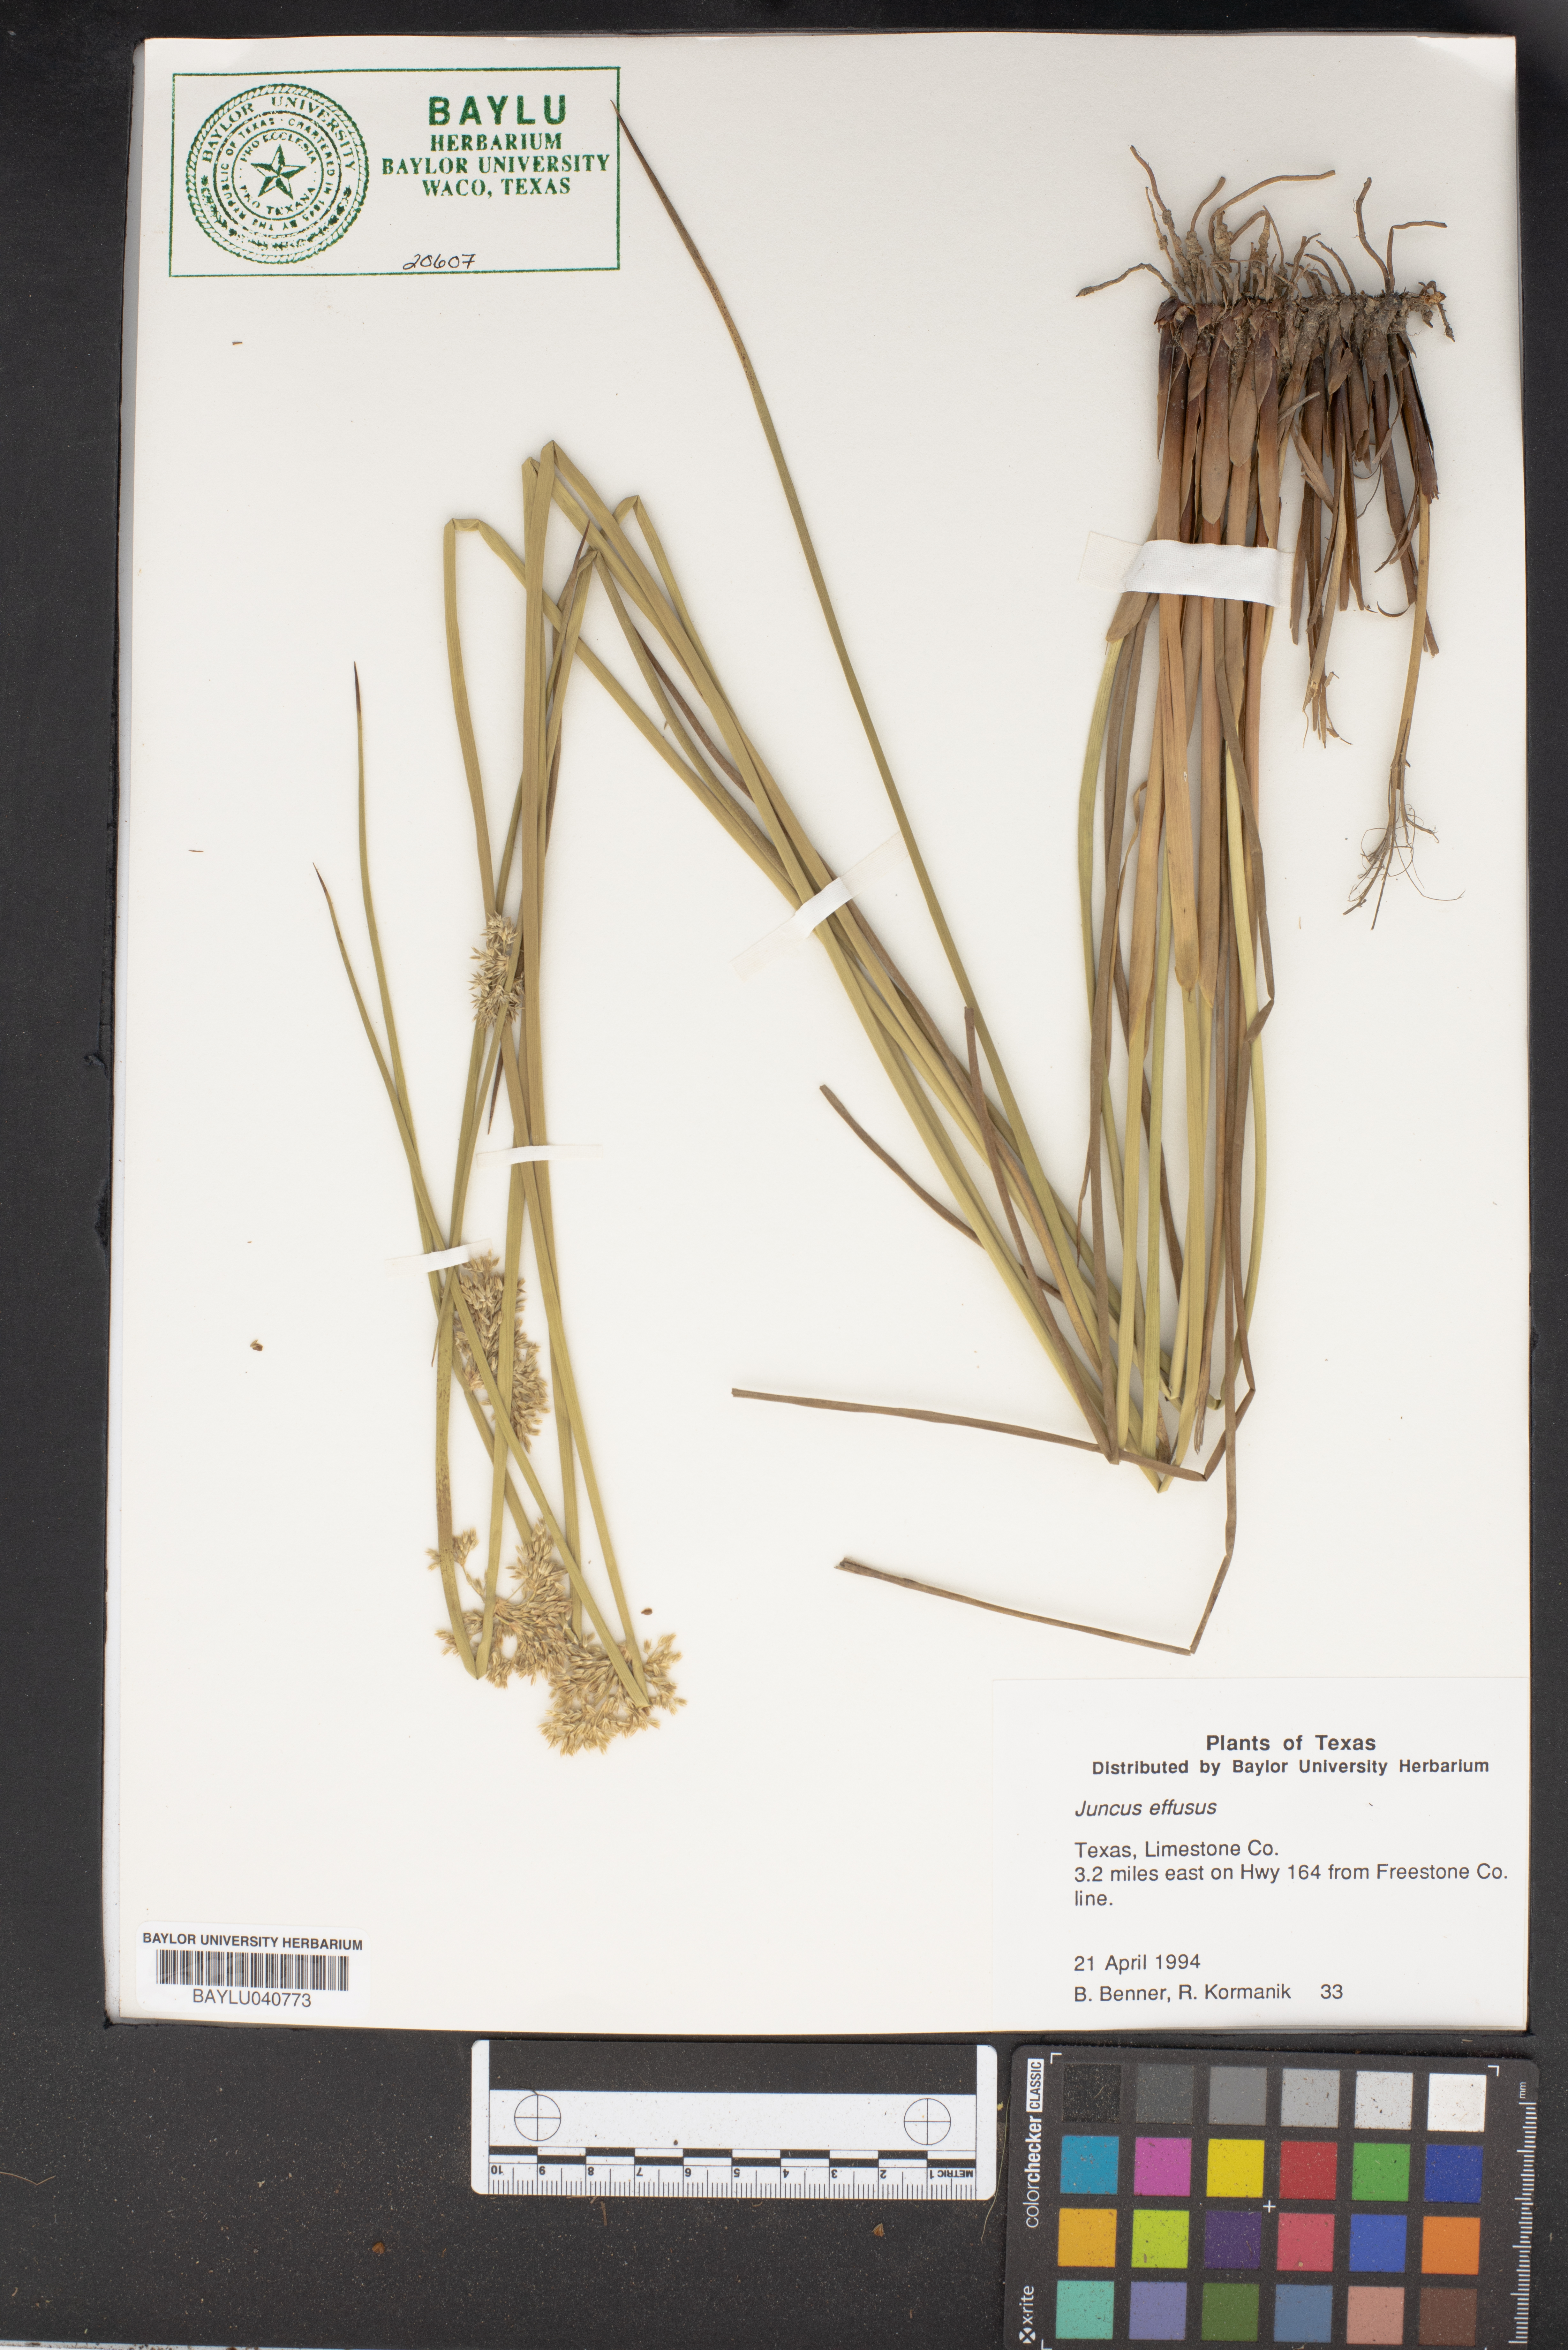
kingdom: Plantae
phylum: Tracheophyta
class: Liliopsida
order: Poales
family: Juncaceae
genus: Juncus
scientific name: Juncus effusus
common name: Soft rush
